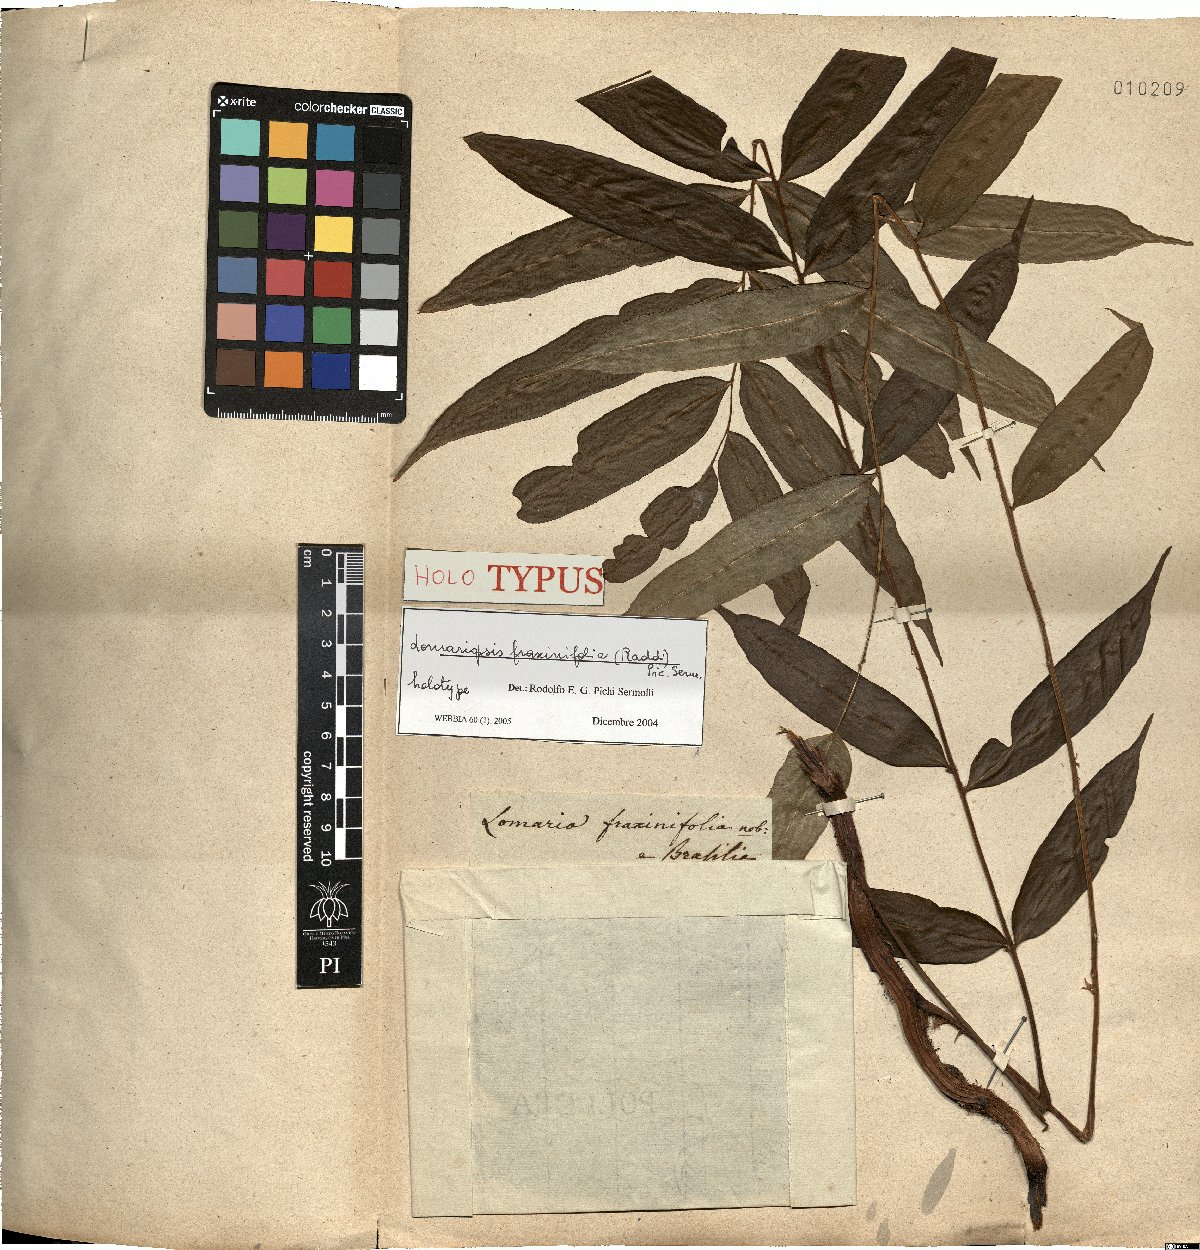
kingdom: Plantae
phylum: Tracheophyta
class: Polypodiopsida
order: Polypodiales
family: Lomariopsidaceae
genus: Lomariopsis
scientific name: Lomariopsis marginata
